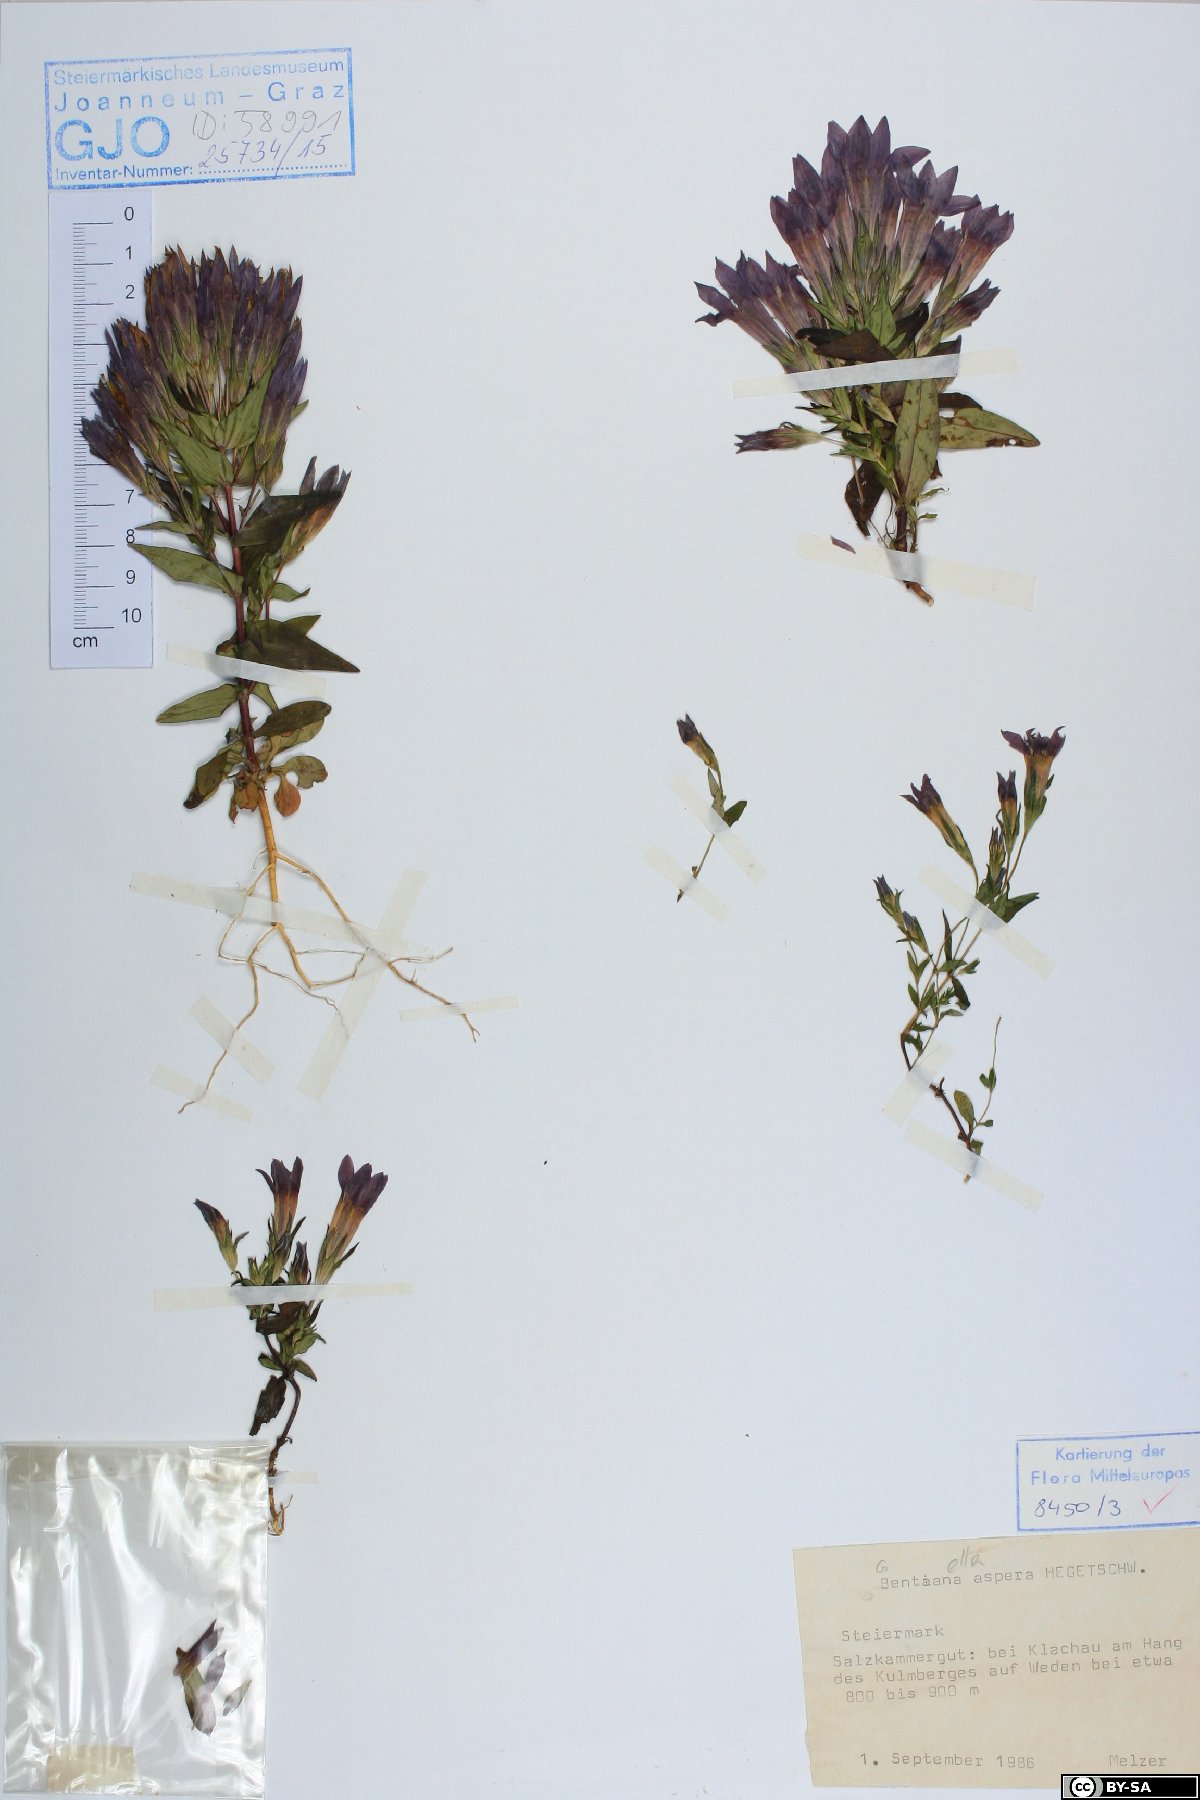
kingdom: Plantae
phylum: Tracheophyta
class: Magnoliopsida
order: Gentianales
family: Gentianaceae
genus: Gentianella
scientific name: Gentianella obtusifolia
